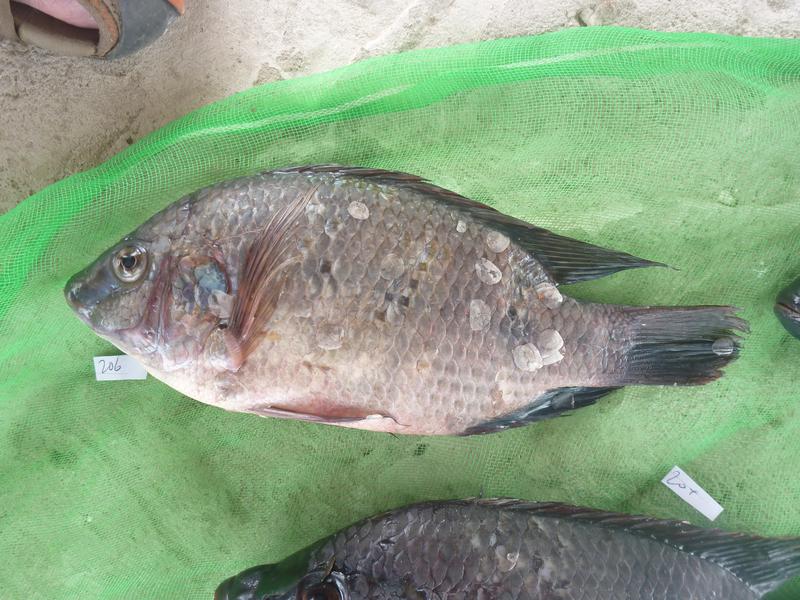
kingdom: Animalia
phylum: Chordata
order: Perciformes
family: Cichlidae
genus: Oreochromis
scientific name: Oreochromis urolepis
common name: Wami tilapia
